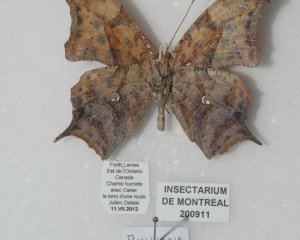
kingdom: Animalia
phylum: Arthropoda
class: Insecta
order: Lepidoptera
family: Nymphalidae
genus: Polygonia
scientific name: Polygonia interrogationis
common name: Question Mark
